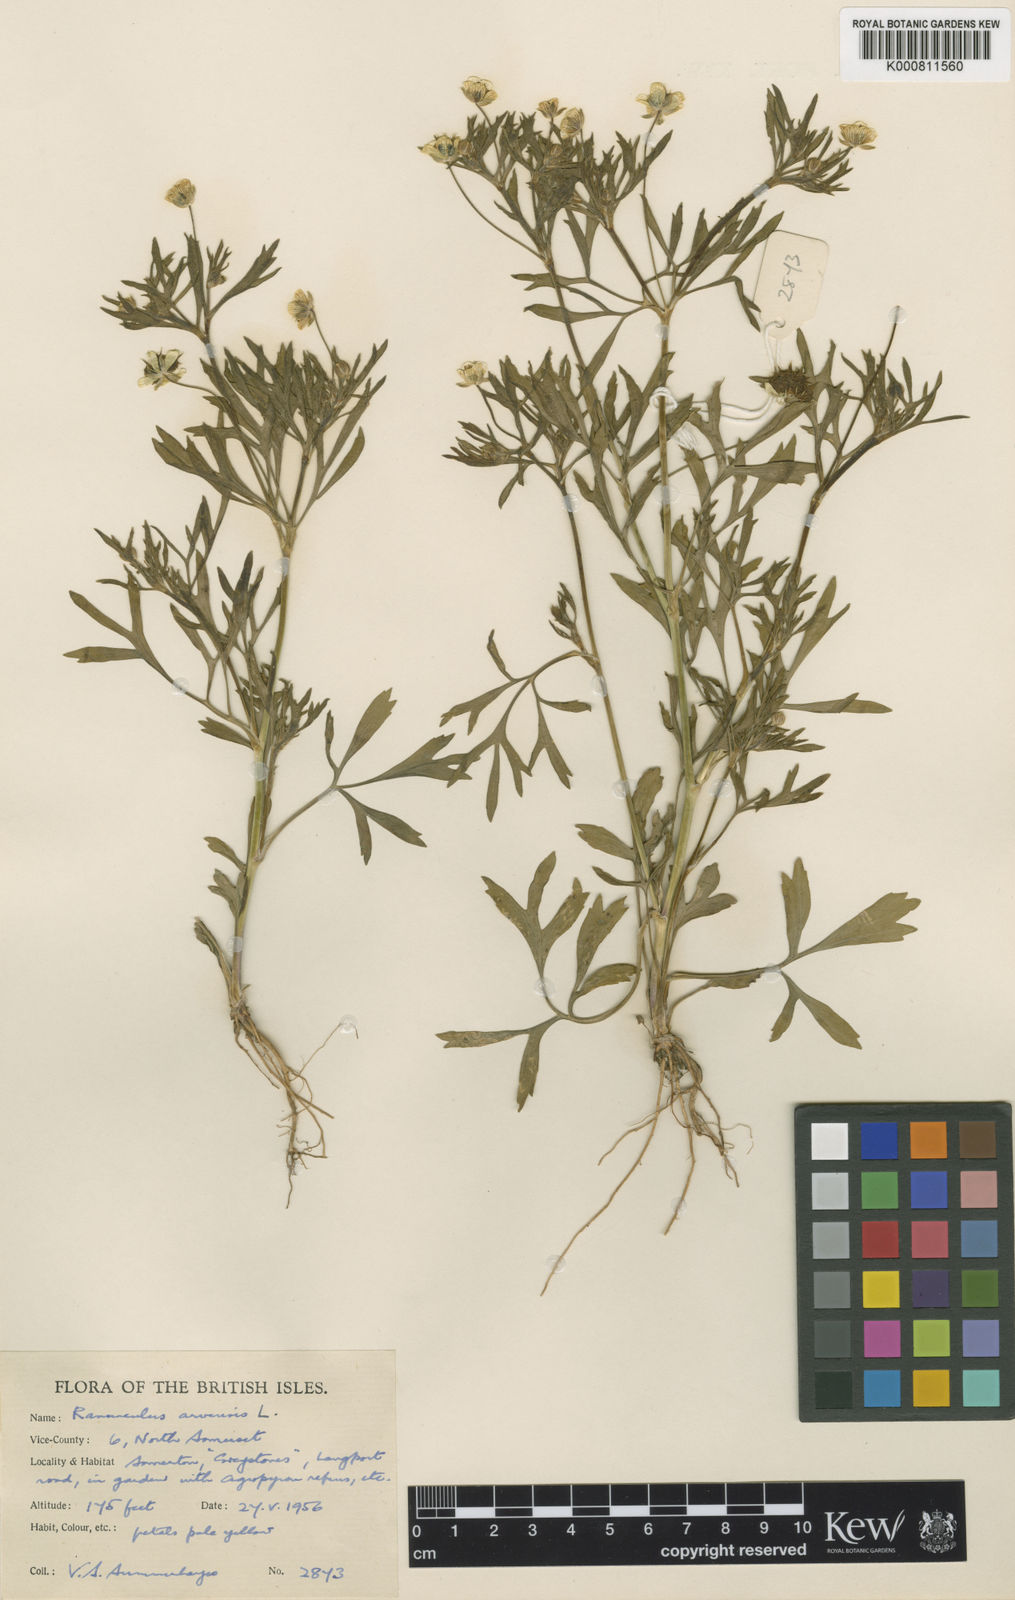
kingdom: Plantae
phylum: Tracheophyta
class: Magnoliopsida
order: Ranunculales
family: Ranunculaceae
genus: Ranunculus
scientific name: Ranunculus arvensis
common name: Corn buttercup
